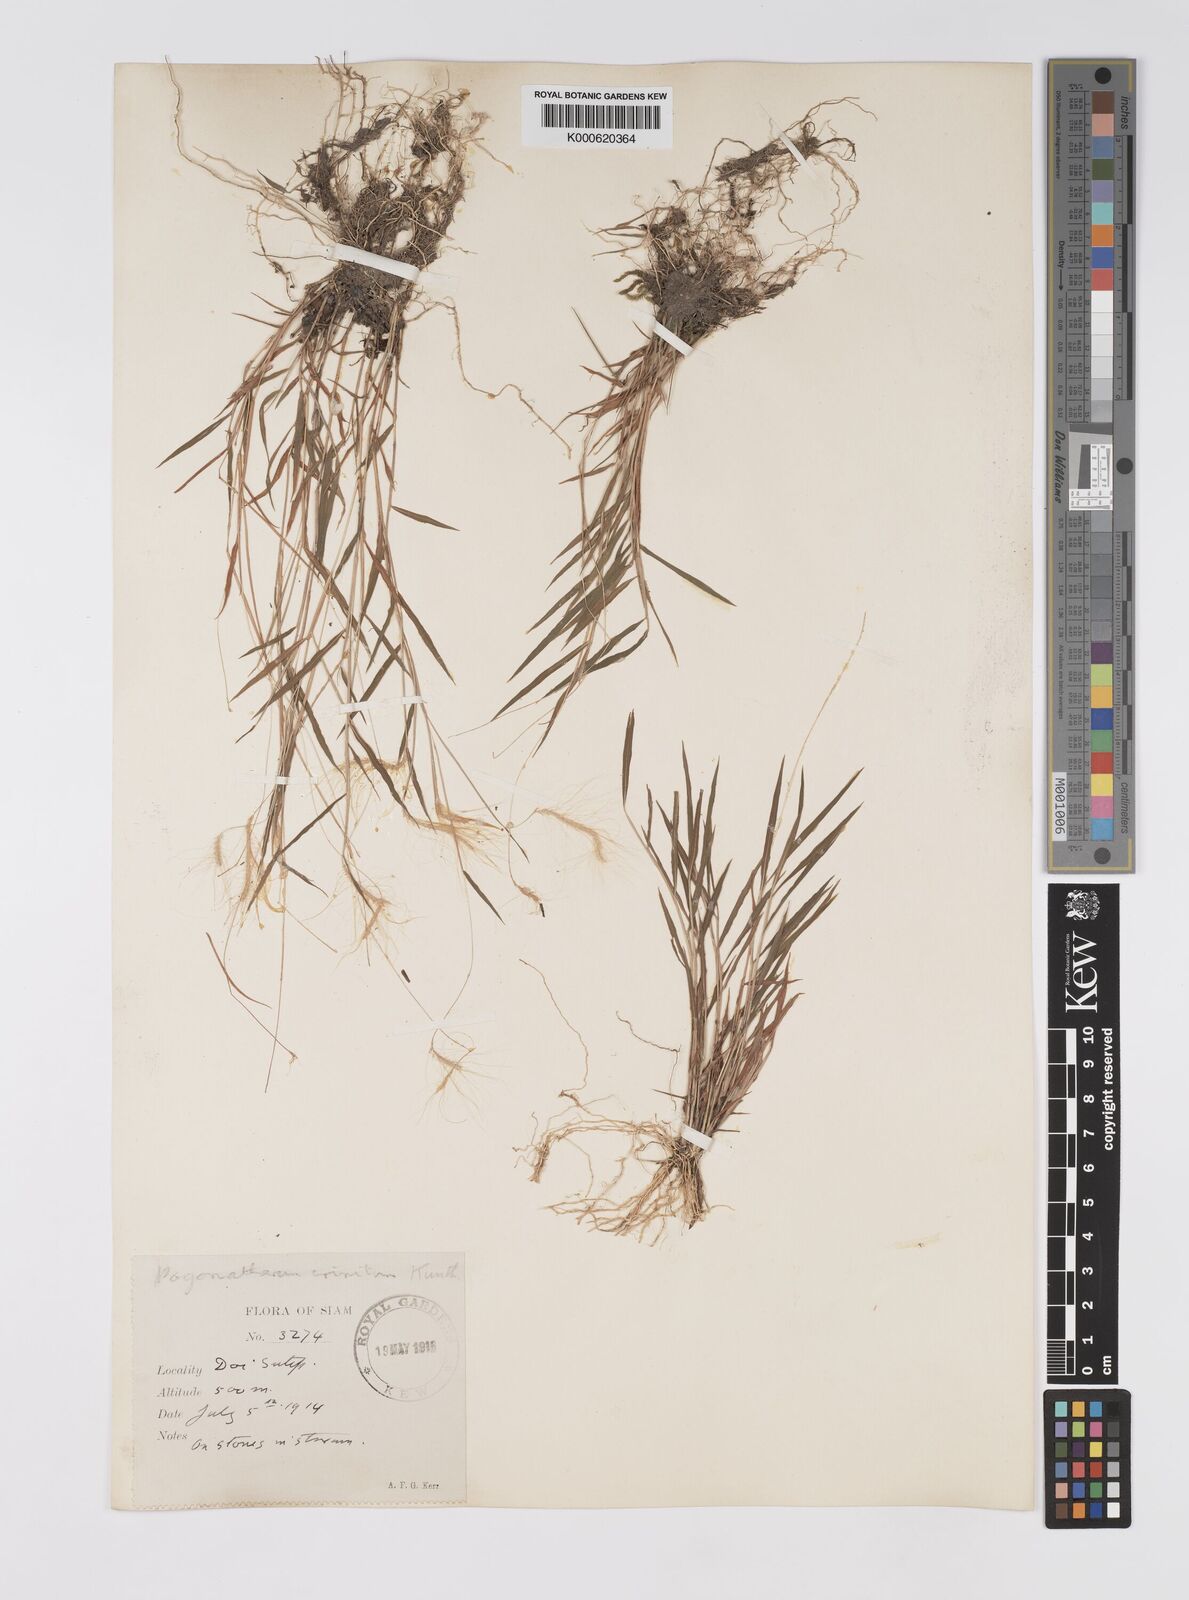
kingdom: Plantae
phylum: Tracheophyta
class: Liliopsida
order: Poales
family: Poaceae
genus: Pogonatherum
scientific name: Pogonatherum crinitum
